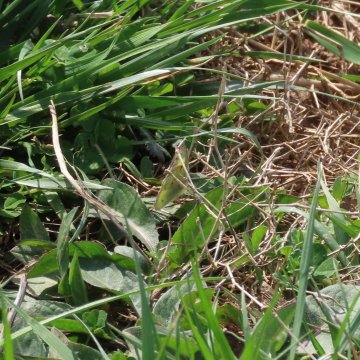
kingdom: Animalia
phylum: Arthropoda
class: Insecta
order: Lepidoptera
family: Pieridae
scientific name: Pieridae
